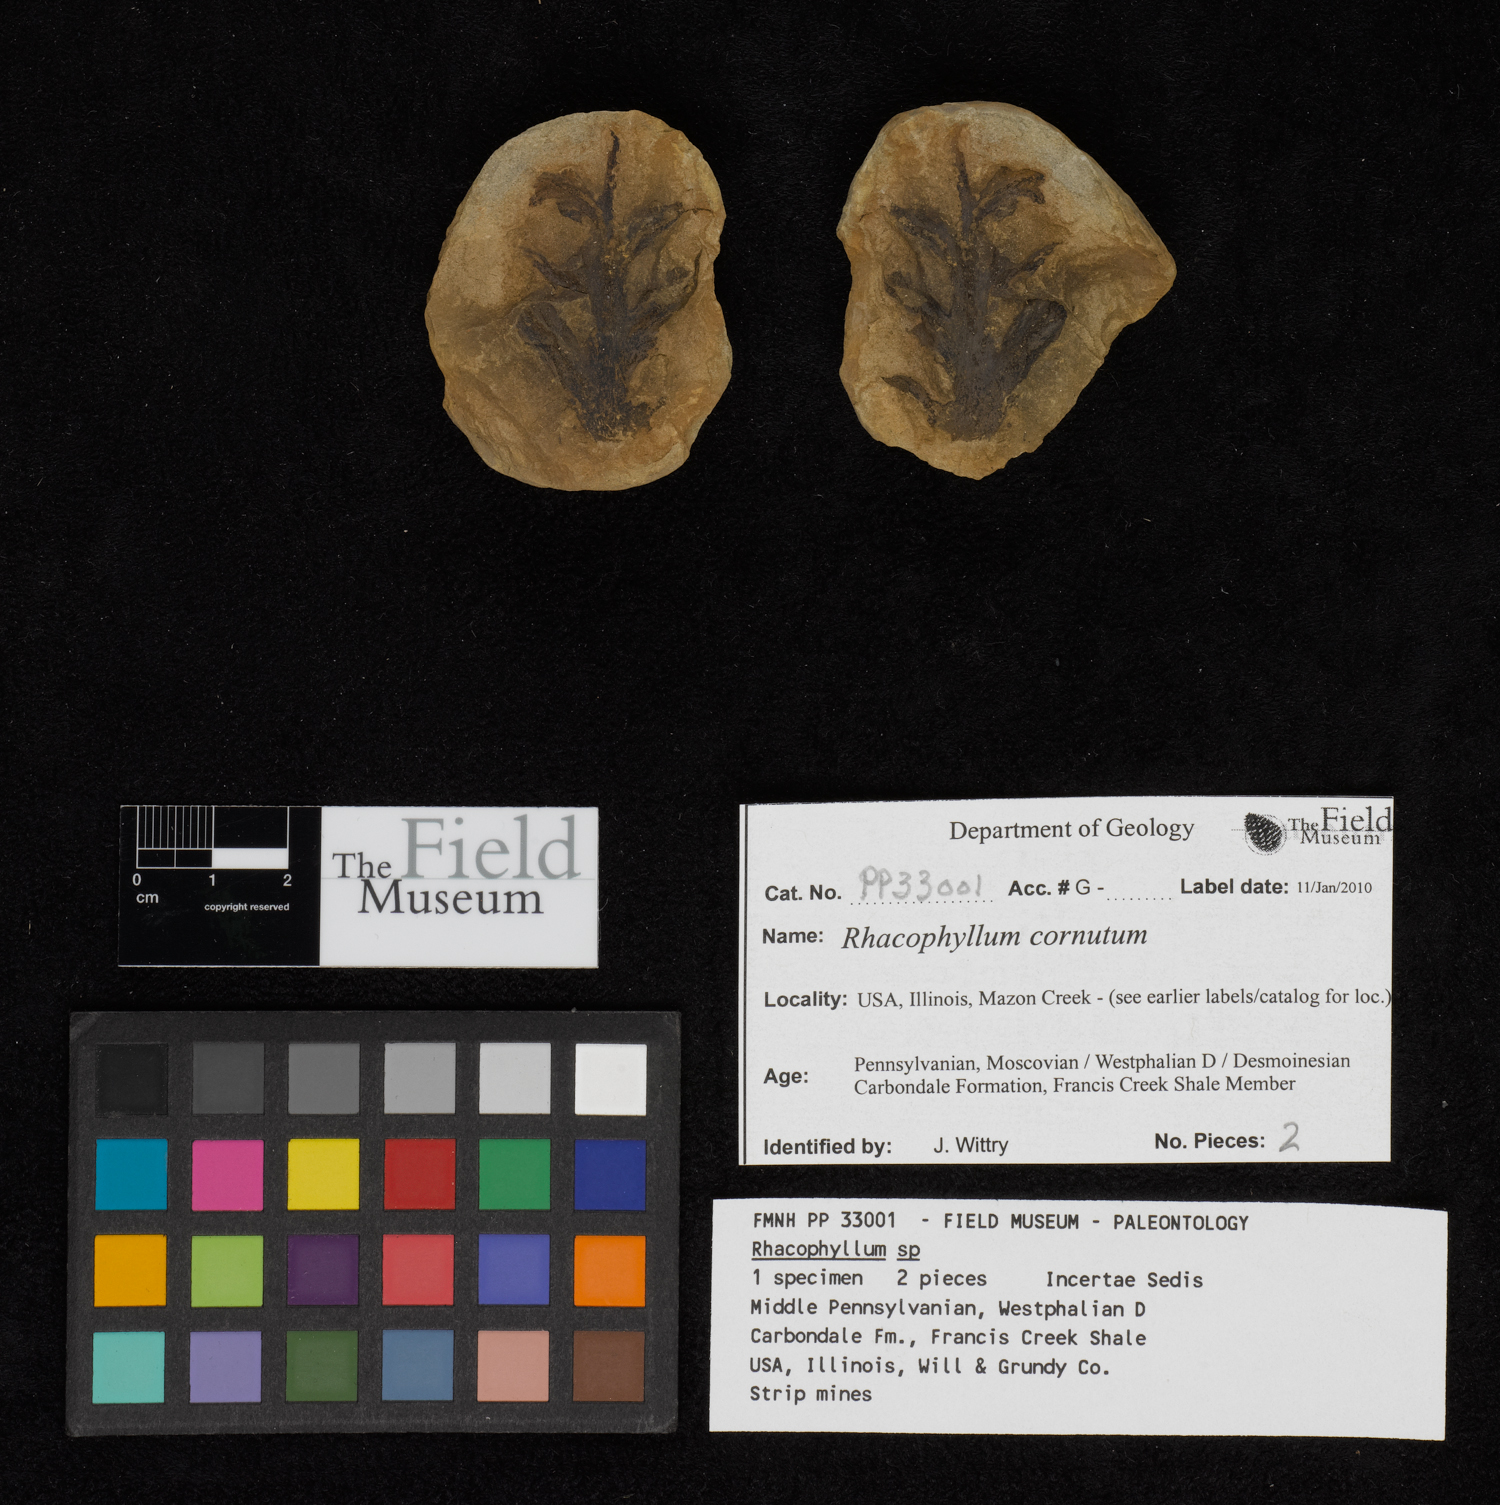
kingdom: Plantae
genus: Rhacophyllum
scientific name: Rhacophyllum
